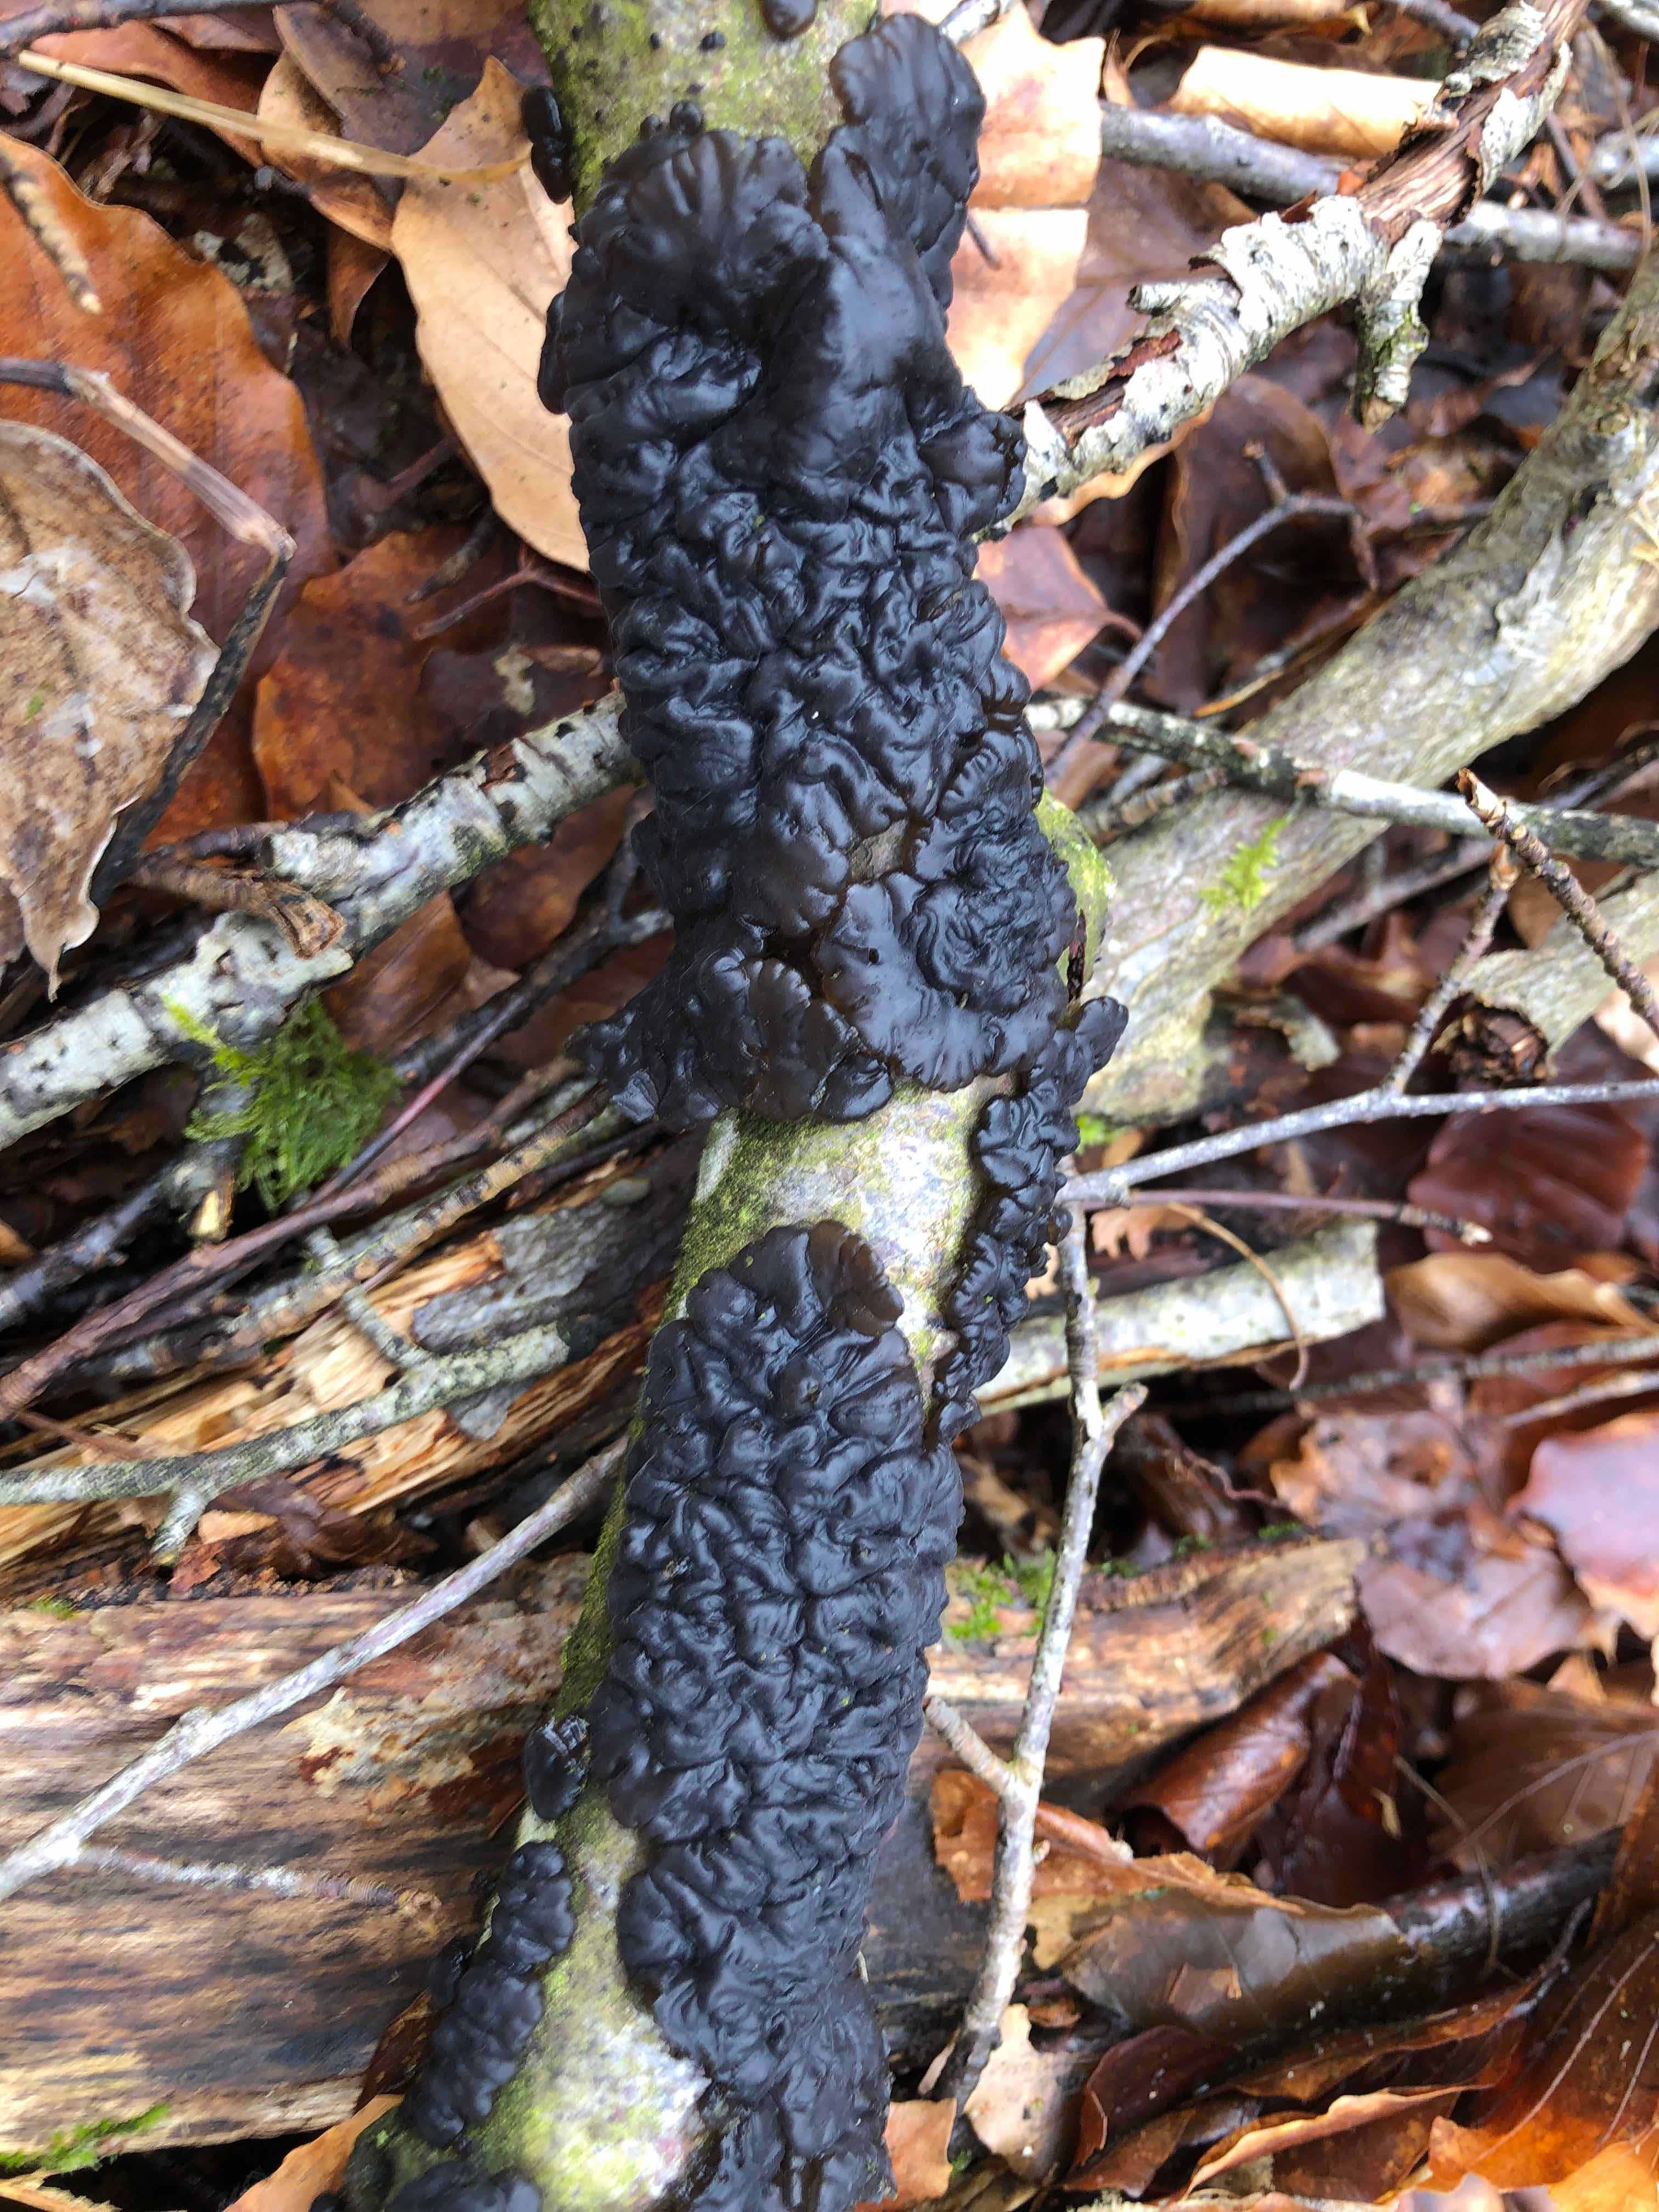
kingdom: Fungi
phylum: Basidiomycota
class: Agaricomycetes
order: Auriculariales
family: Auriculariaceae
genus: Exidia
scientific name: Exidia nigricans
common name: almindelig bævretop
